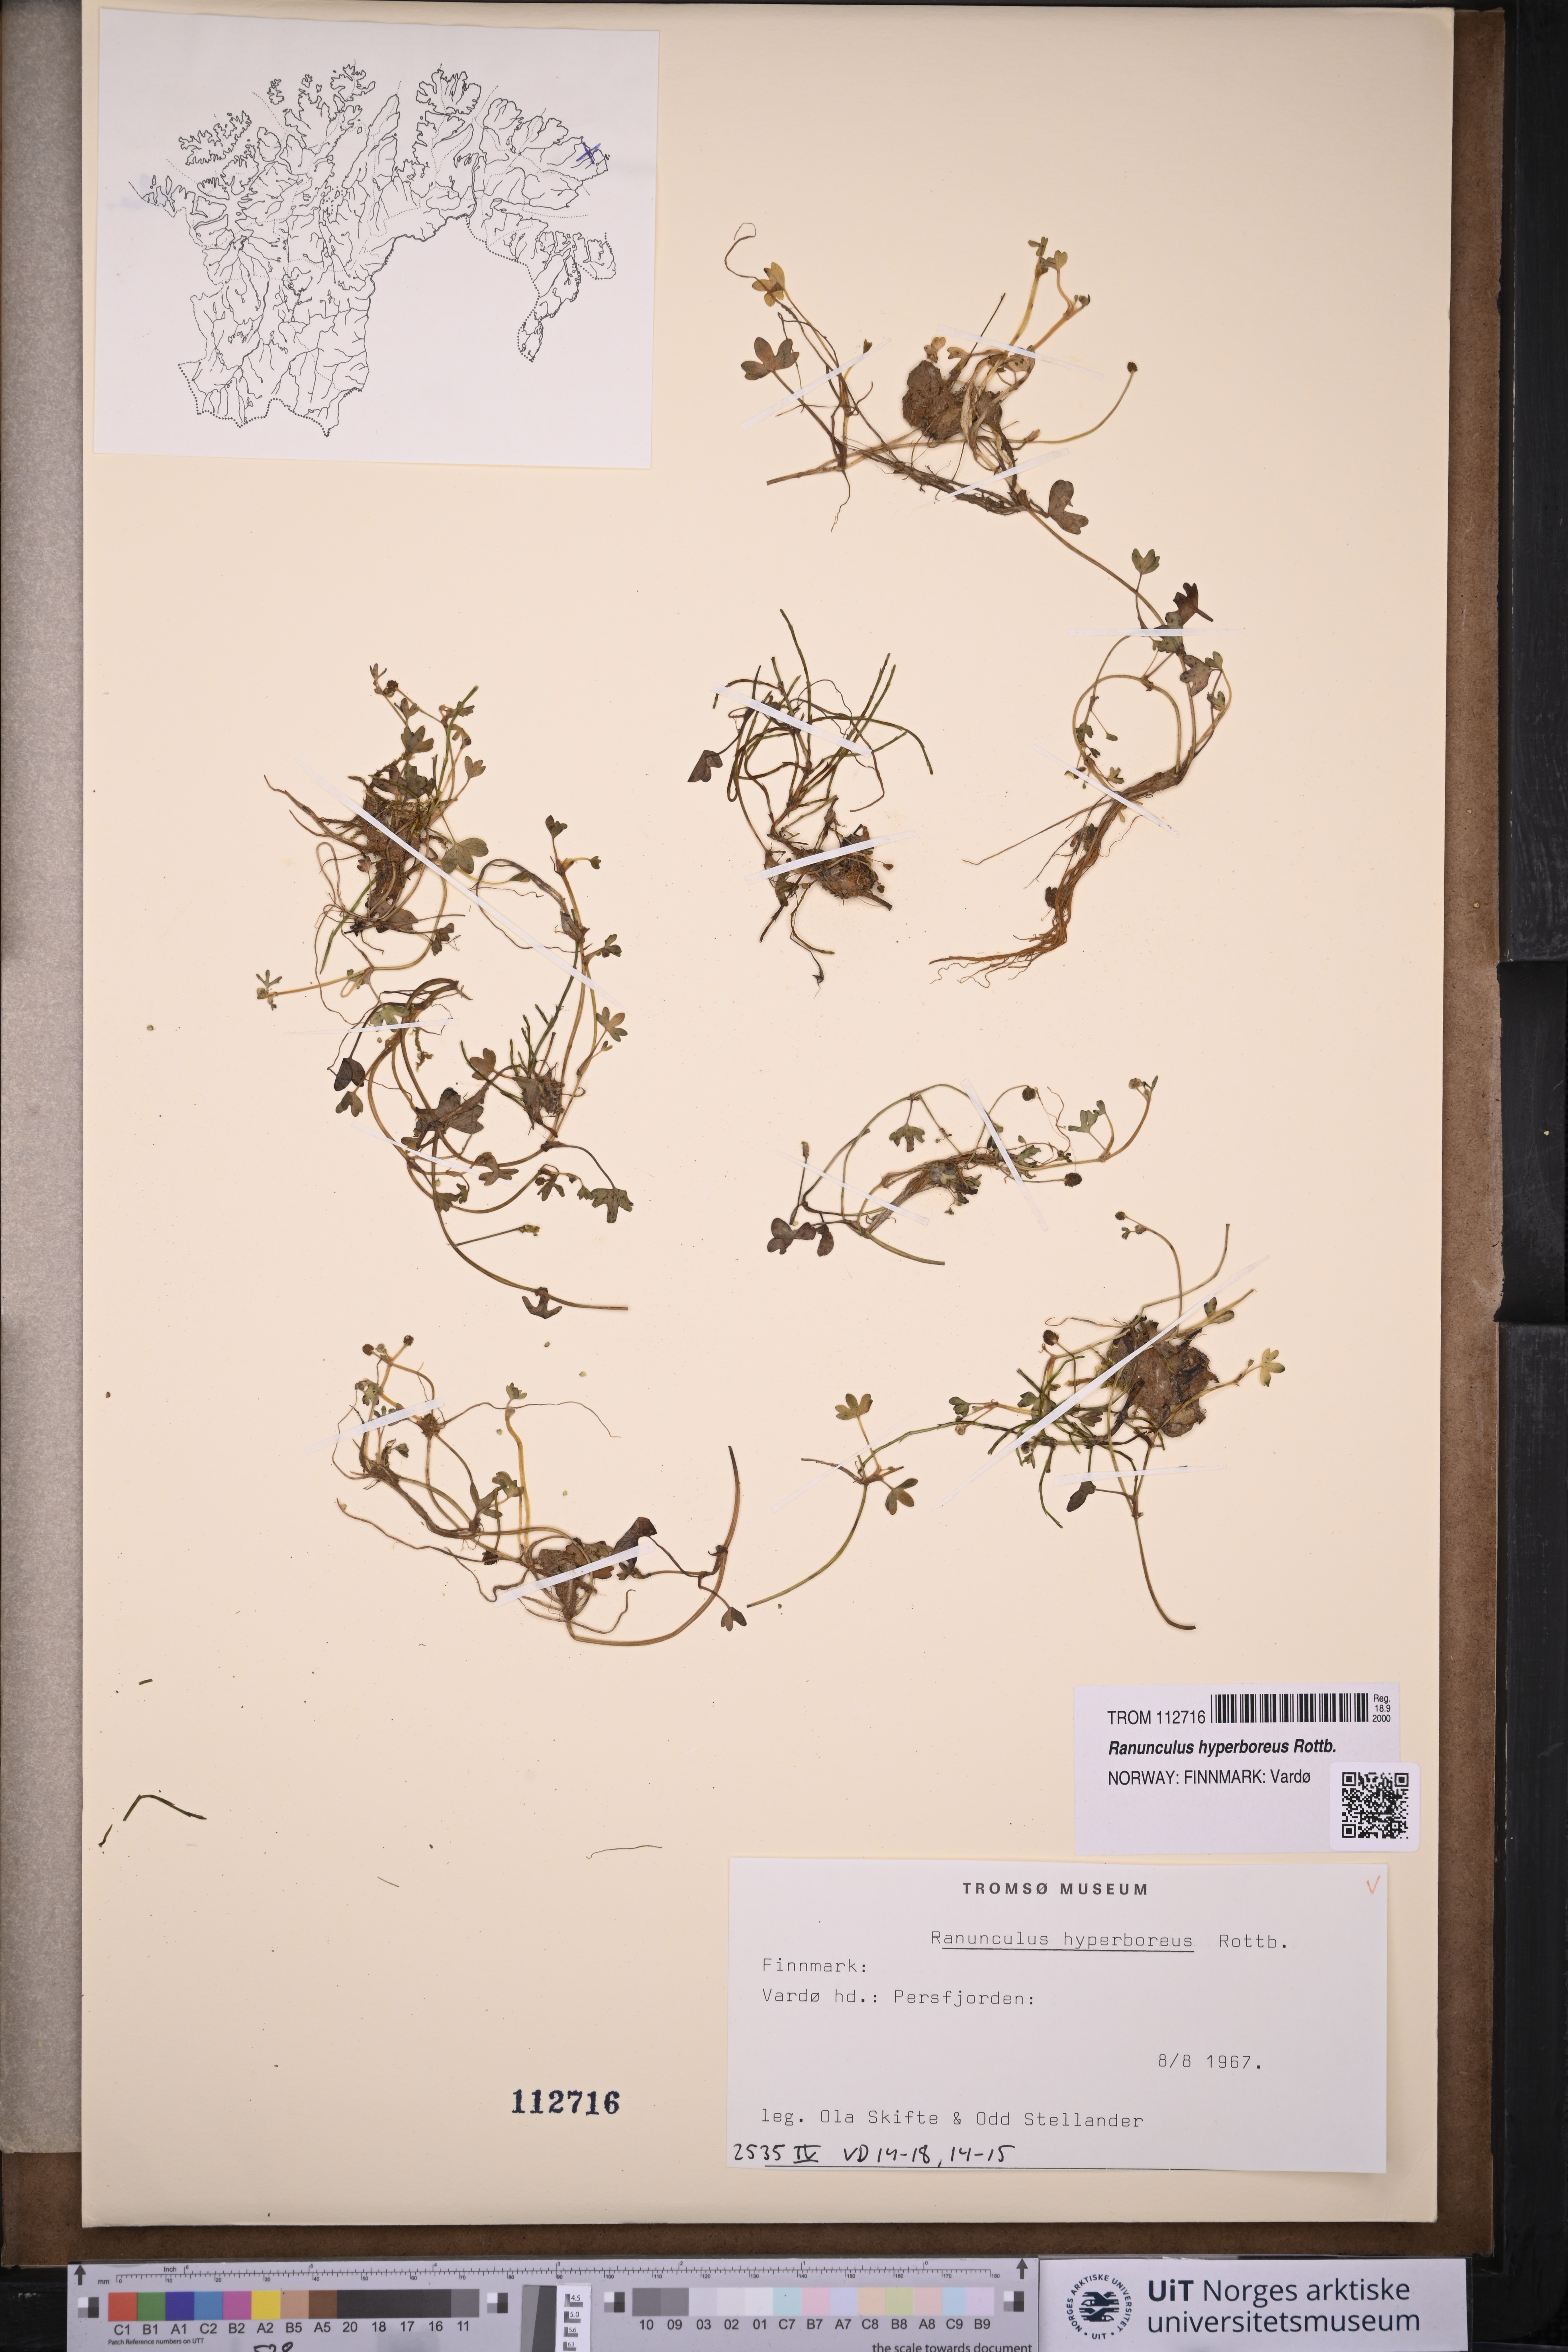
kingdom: Plantae
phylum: Tracheophyta
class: Magnoliopsida
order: Ranunculales
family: Ranunculaceae
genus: Ranunculus
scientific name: Ranunculus hyperboreus
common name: Arctic buttercup
